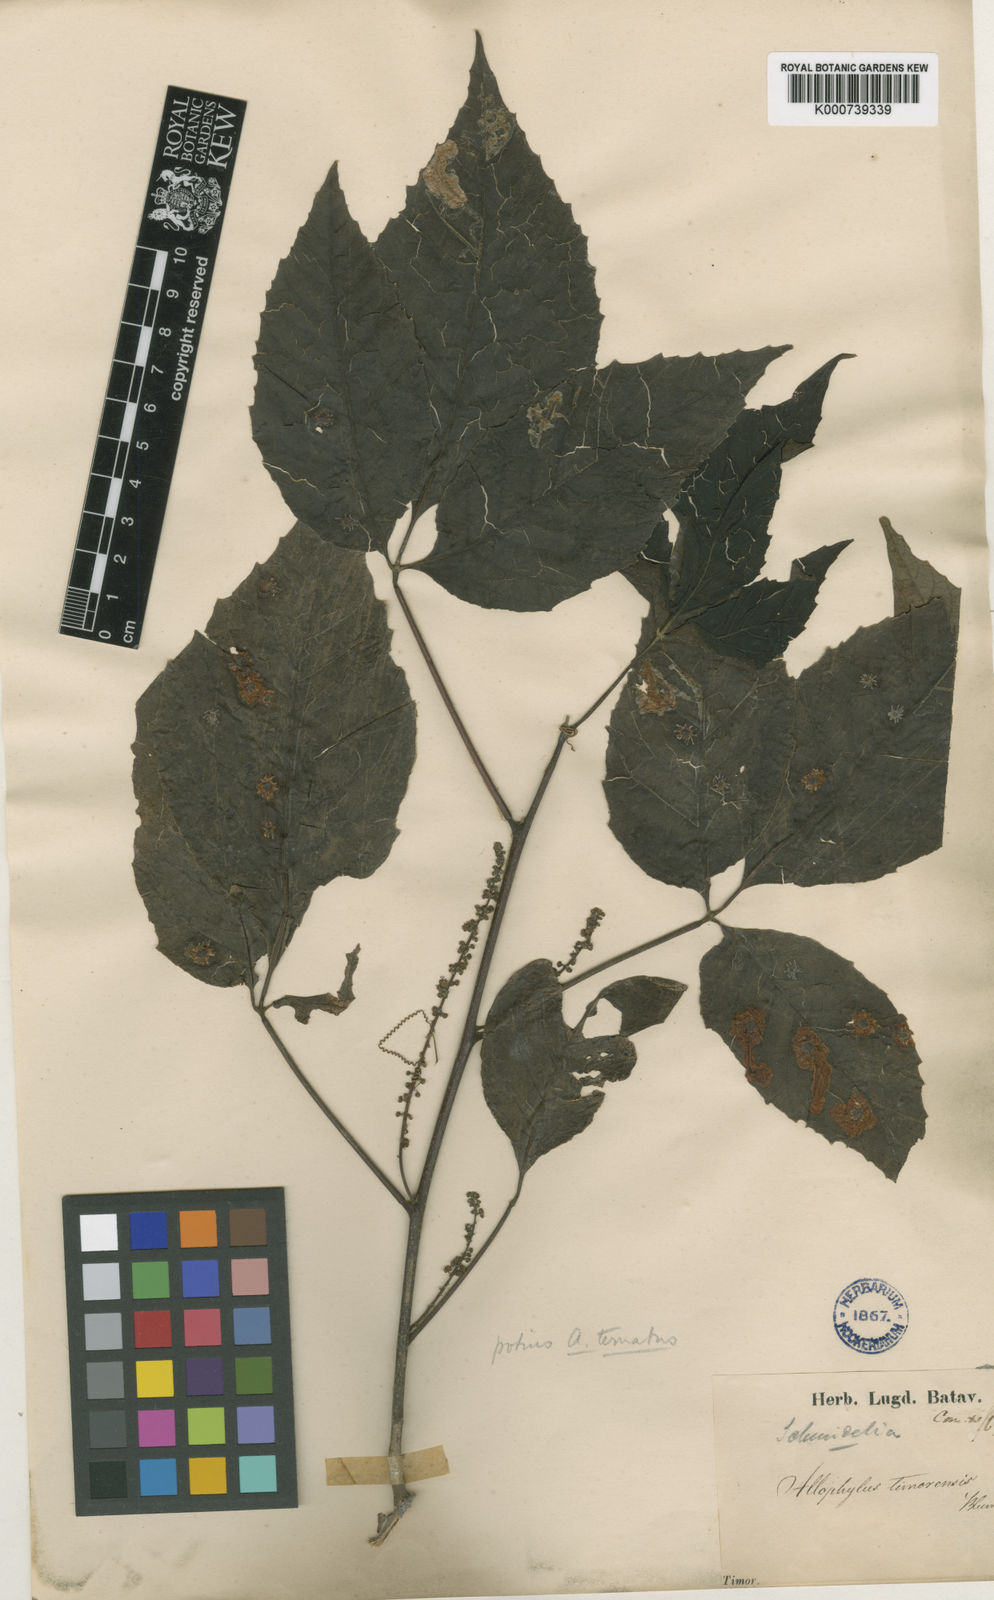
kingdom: Plantae
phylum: Tracheophyta
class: Magnoliopsida
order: Sapindales
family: Sapindaceae
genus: Allophylus
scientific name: Allophylus
